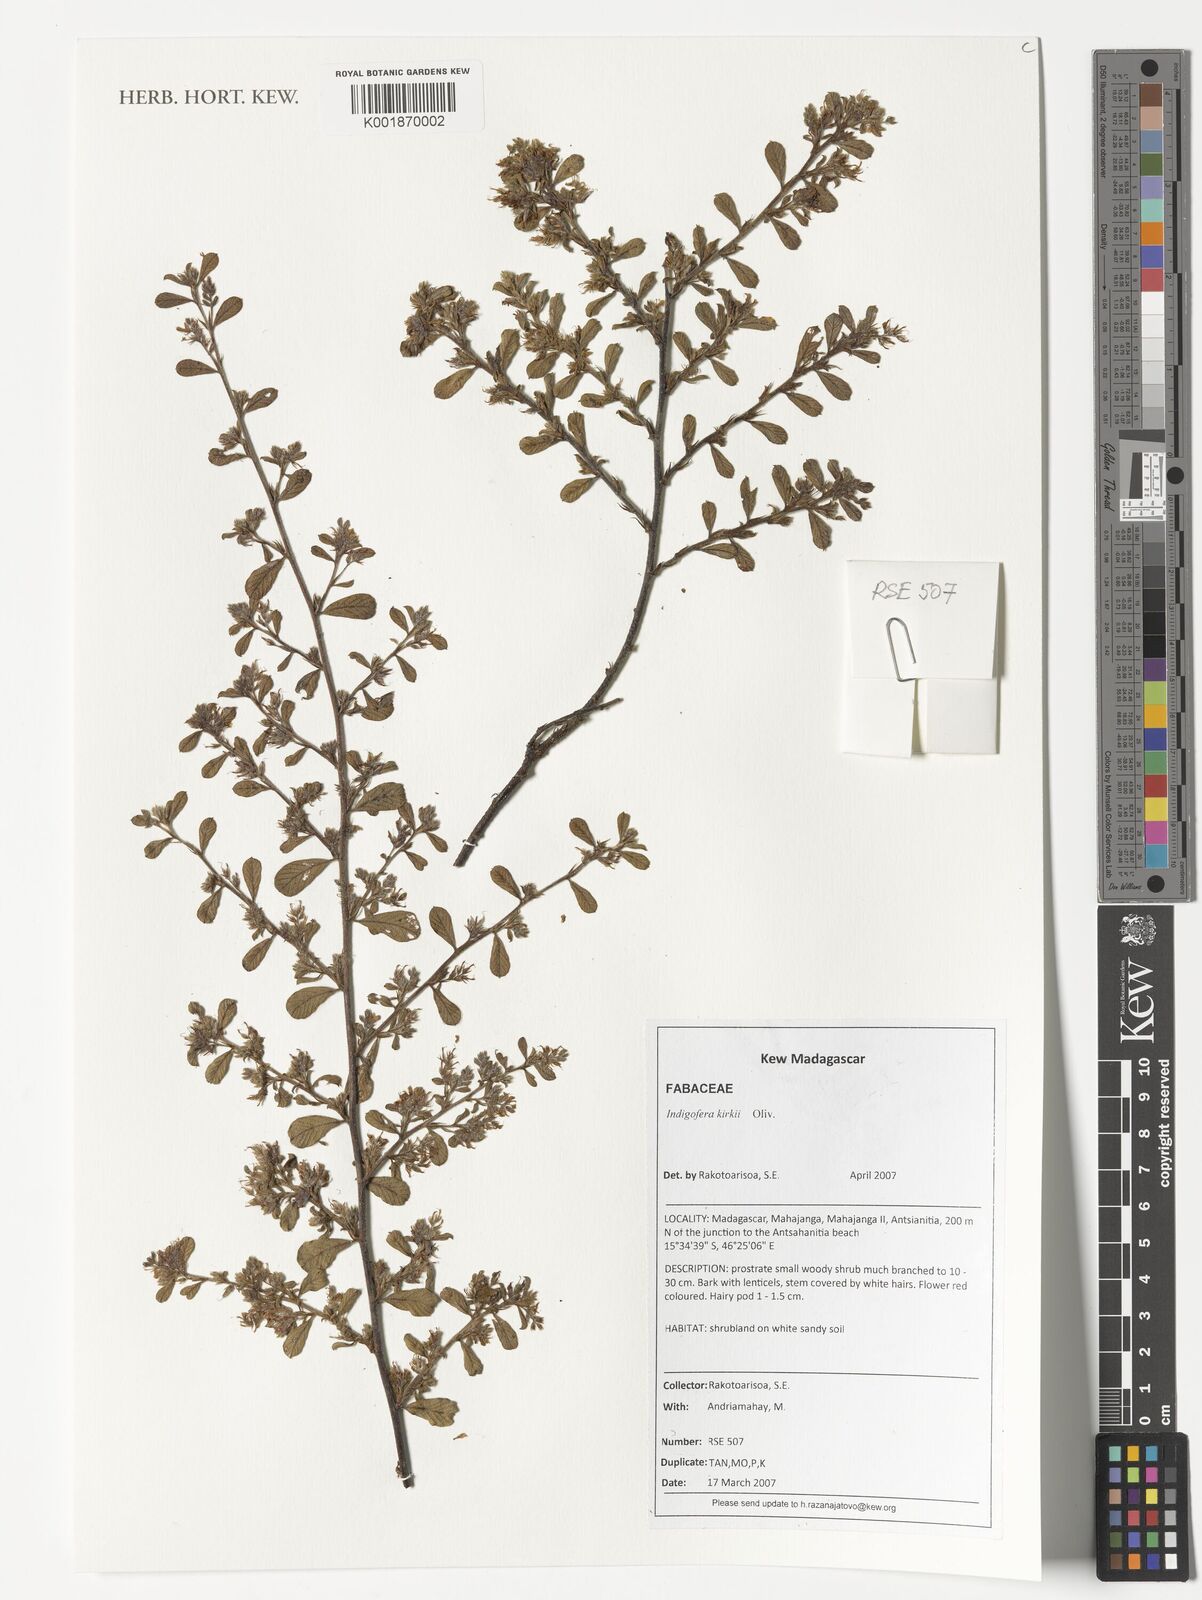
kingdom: Plantae
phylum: Tracheophyta
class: Magnoliopsida
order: Fabales
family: Fabaceae
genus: Indigofera
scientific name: Indigofera kirkii
